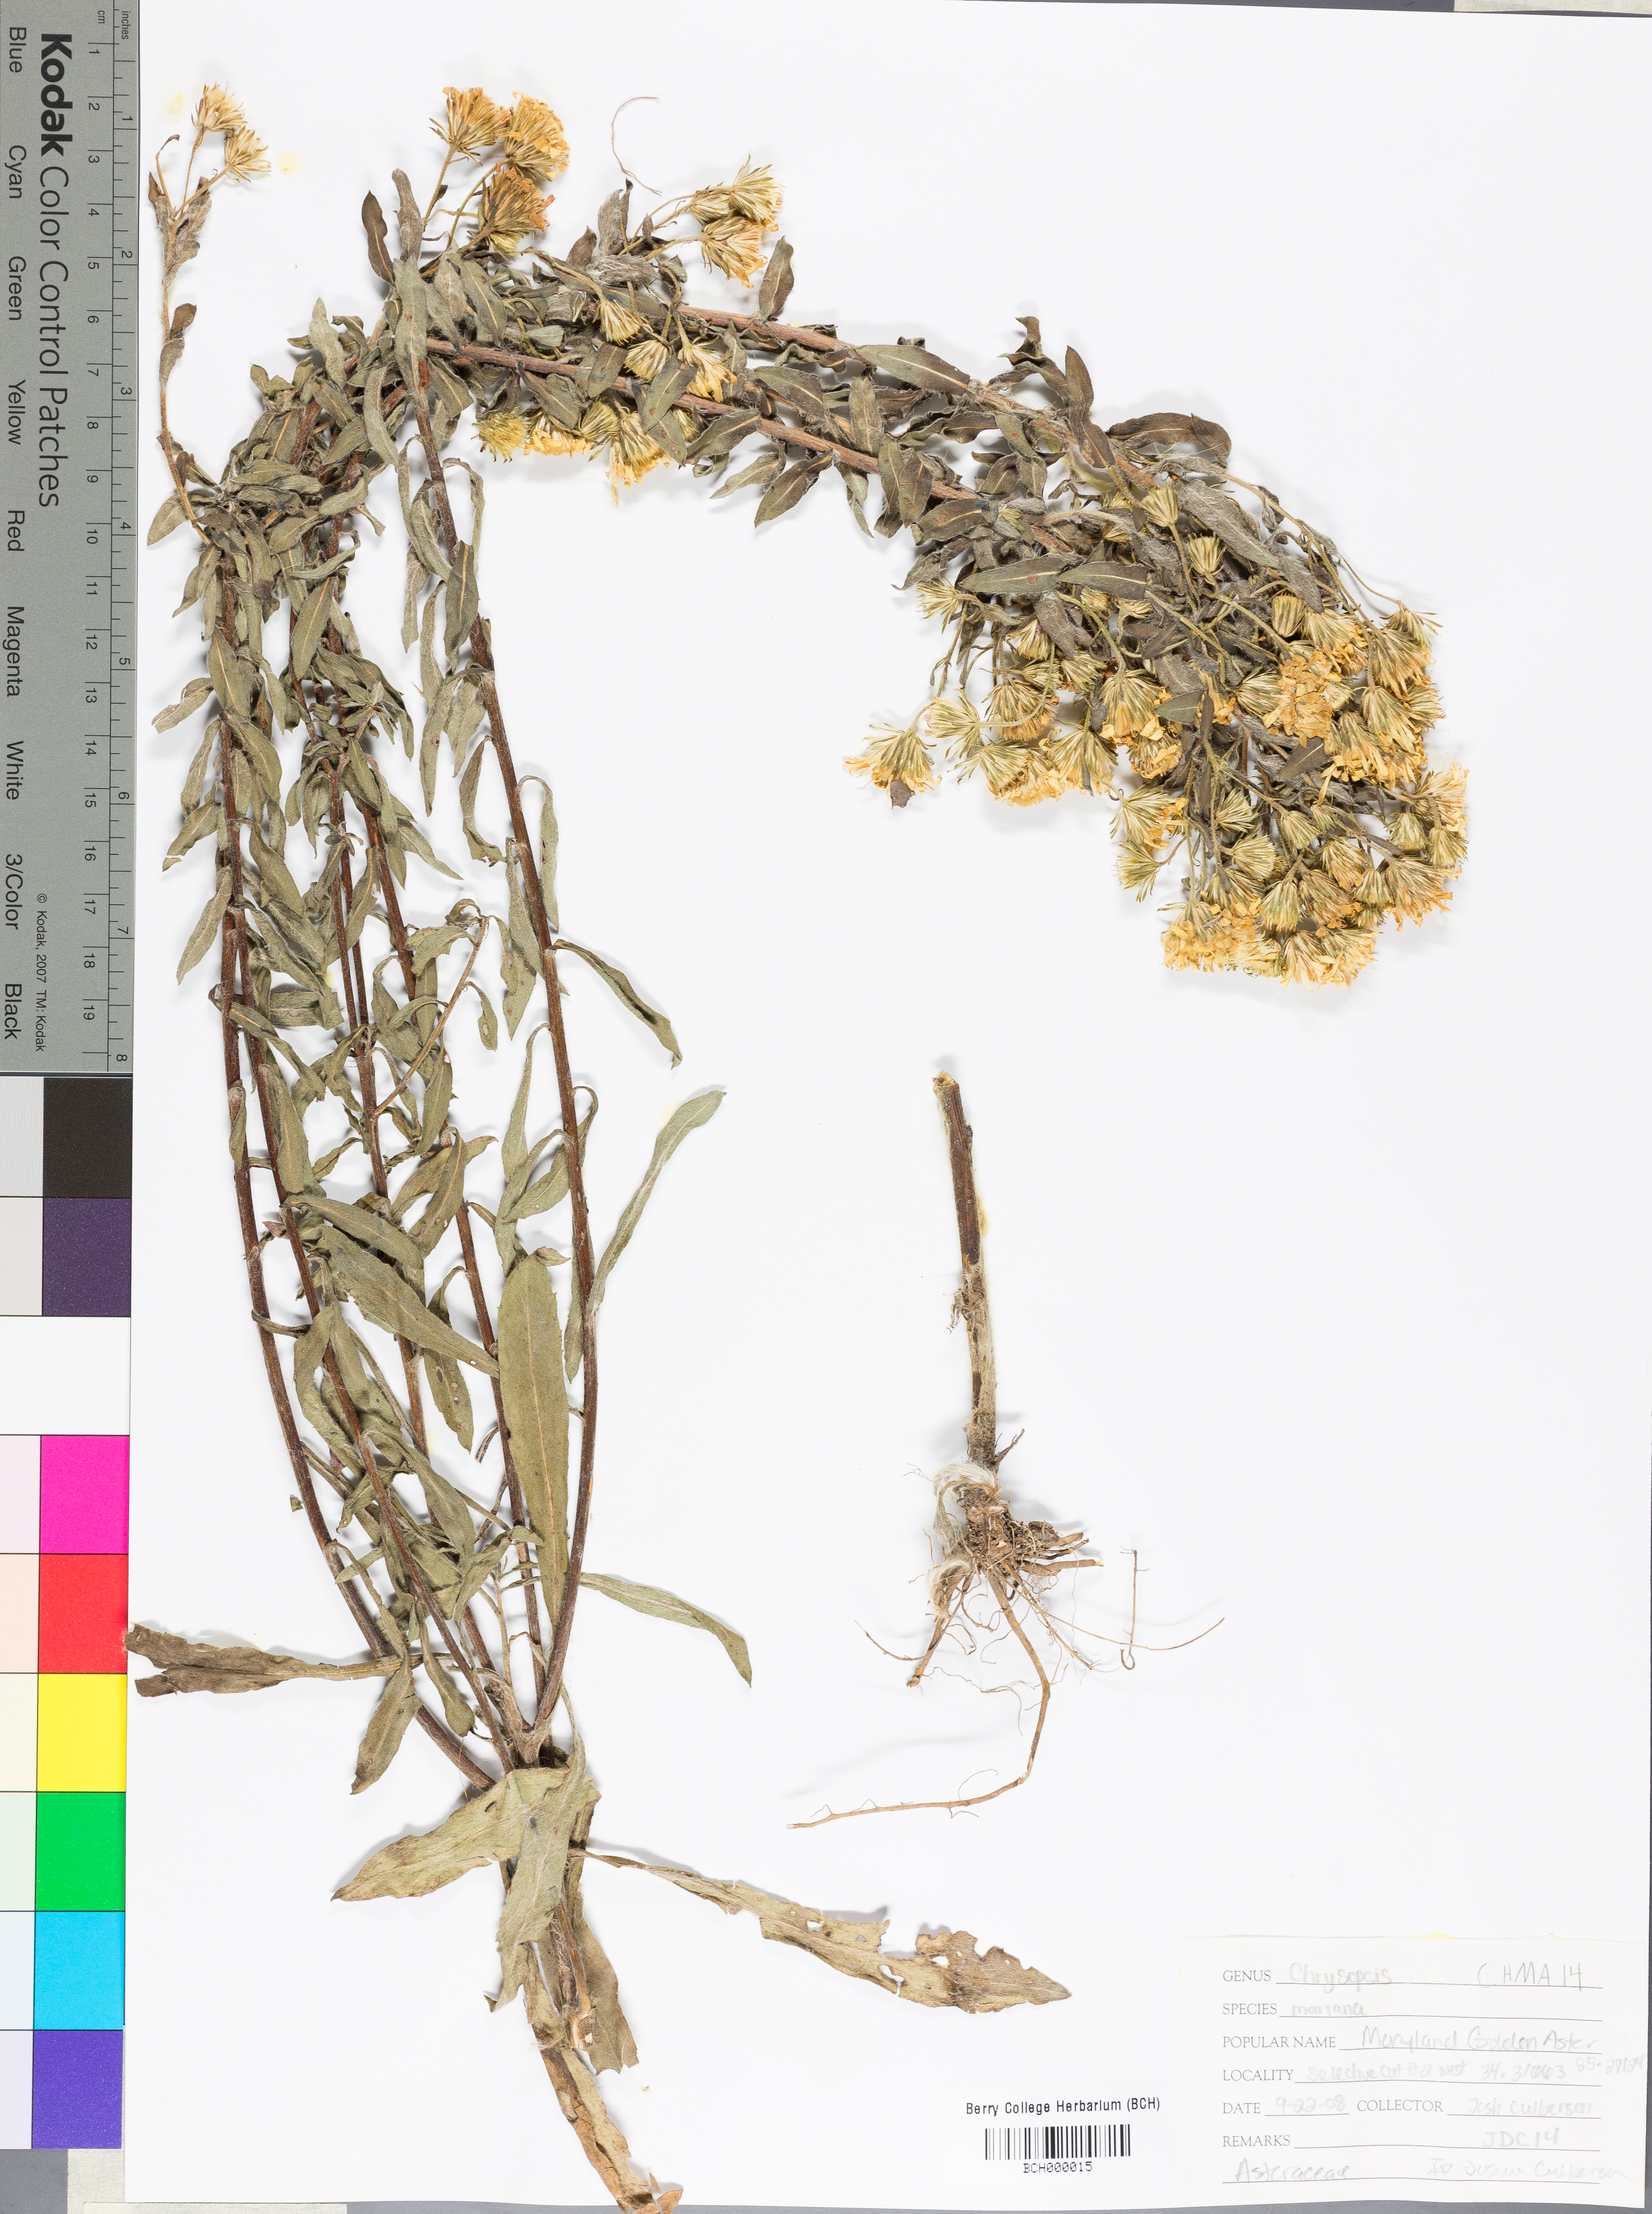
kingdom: Plantae
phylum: Tracheophyta
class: Magnoliopsida
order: Asterales
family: Asteraceae
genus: Chrysopsis
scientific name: Chrysopsis mariana
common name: Maryland golden-aster
